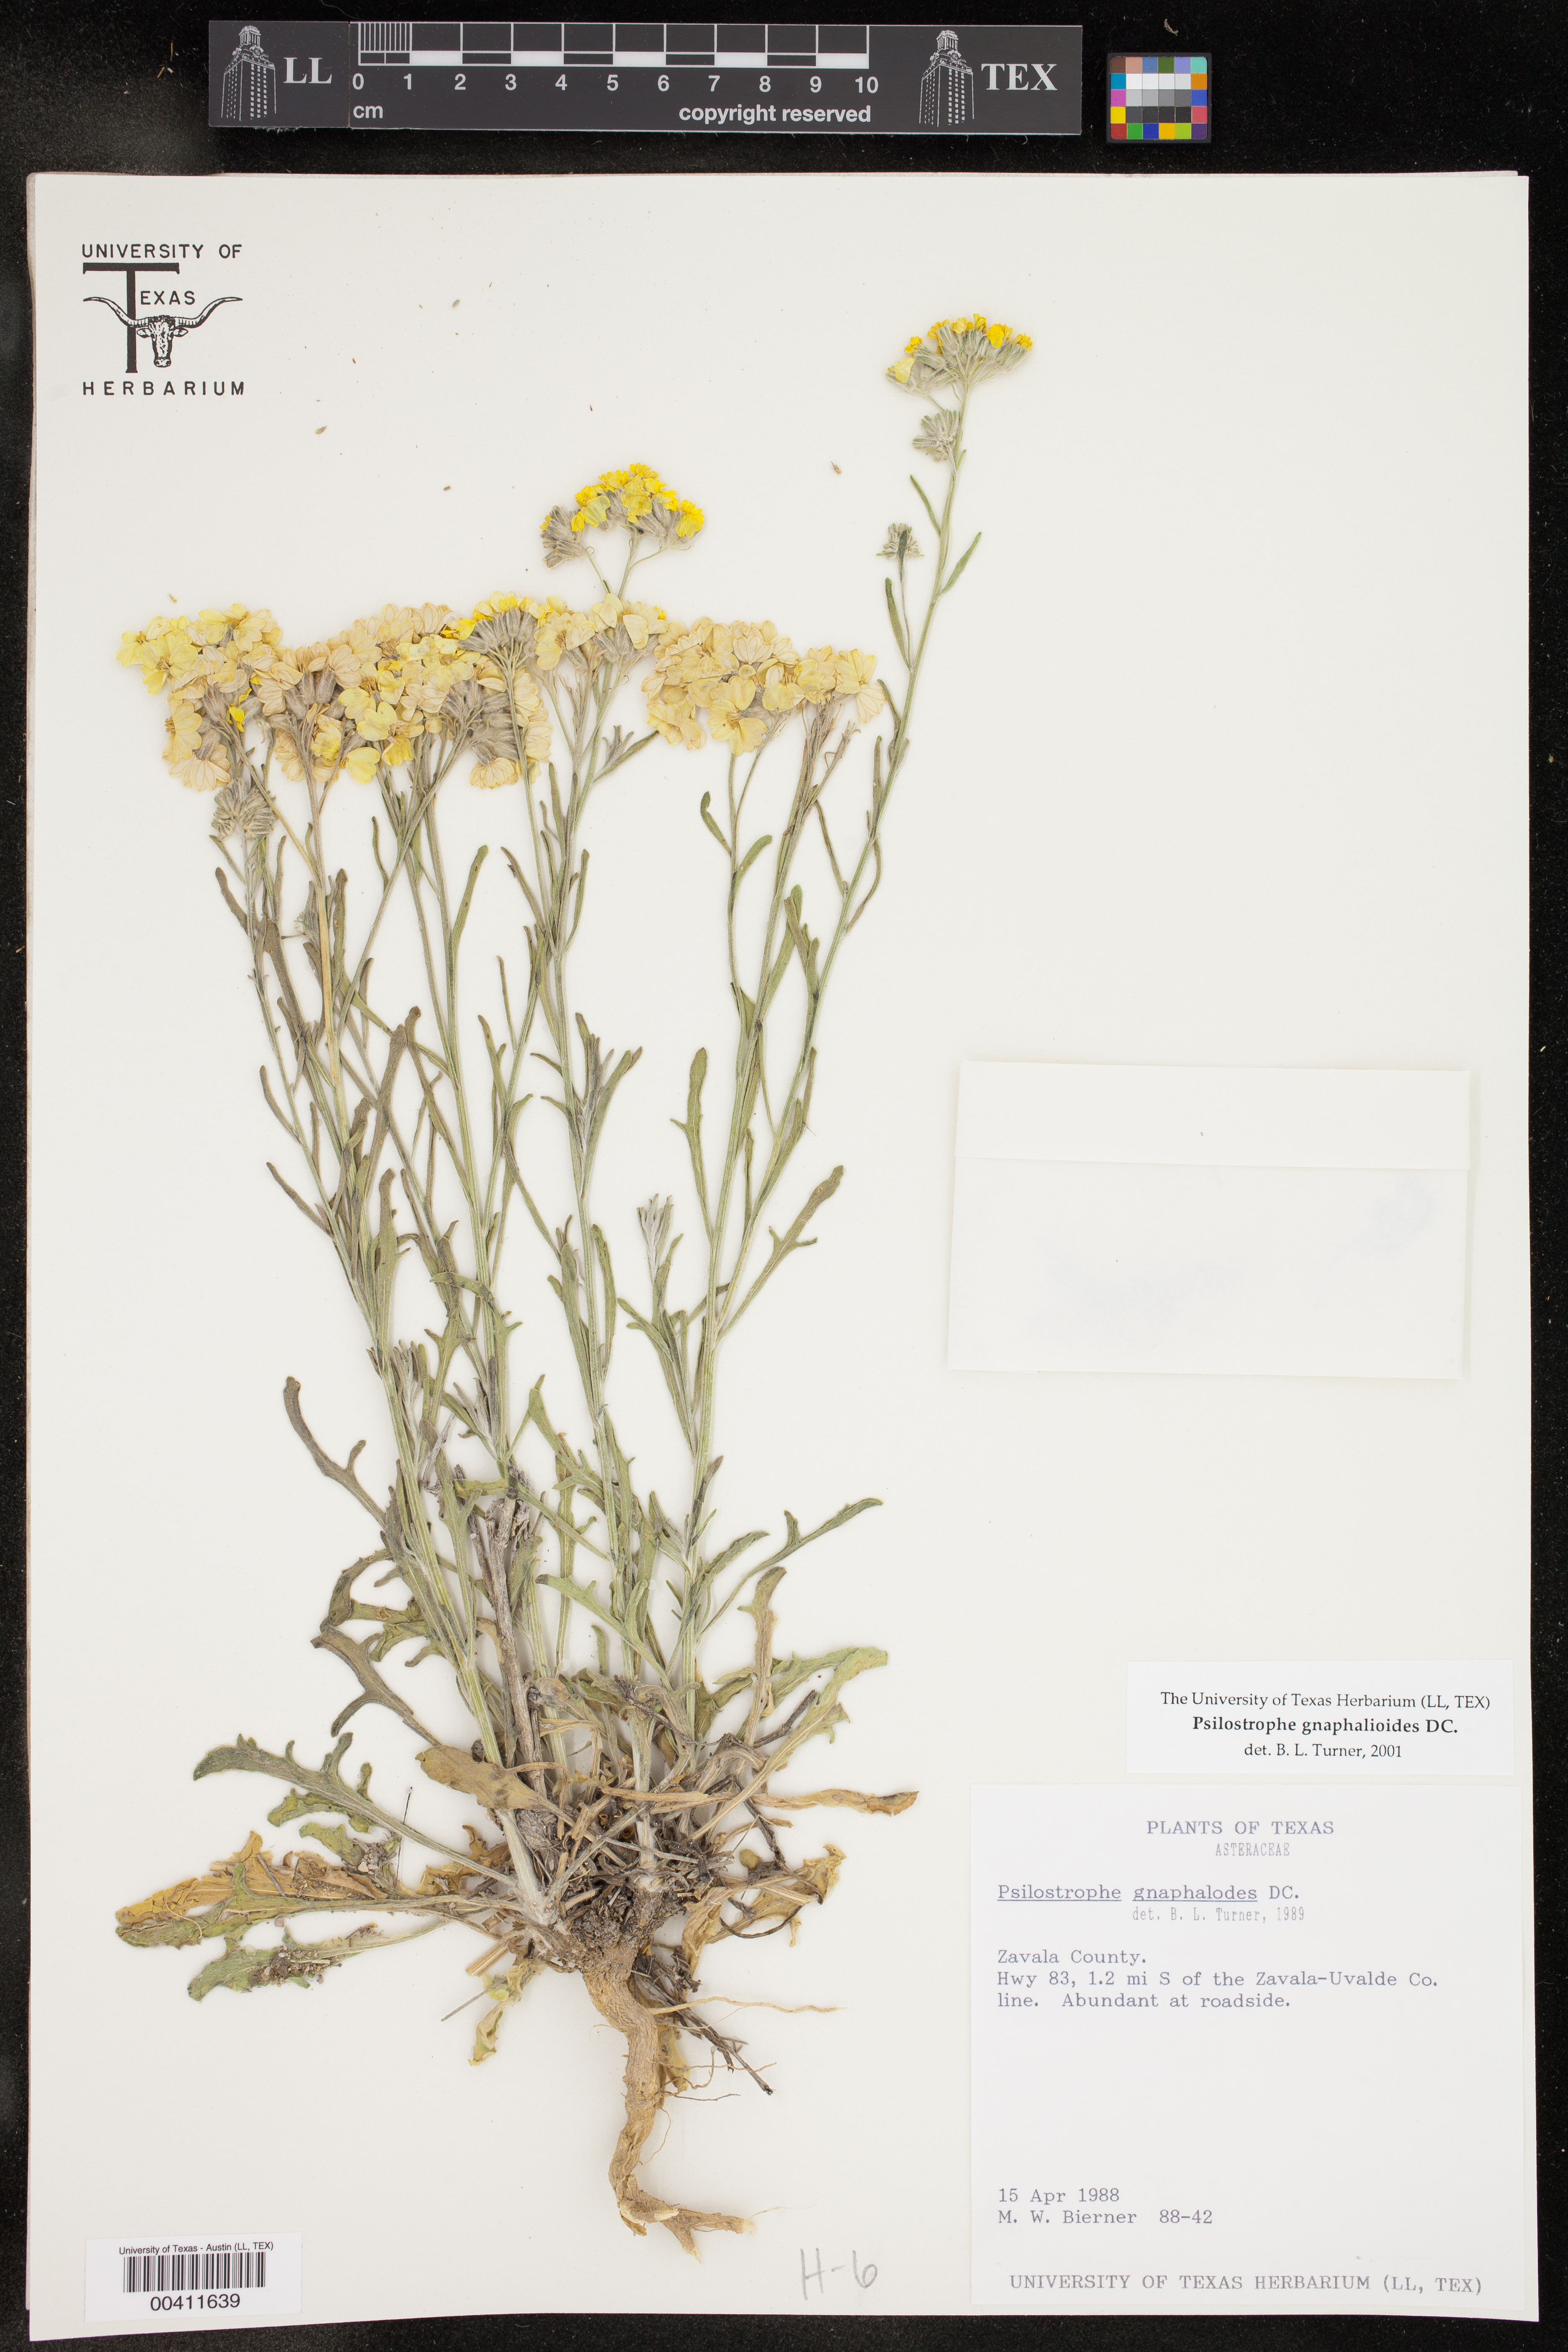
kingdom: Plantae
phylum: Tracheophyta
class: Magnoliopsida
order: Asterales
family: Asteraceae
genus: Psilostrophe
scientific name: Psilostrophe gnaphalioides
